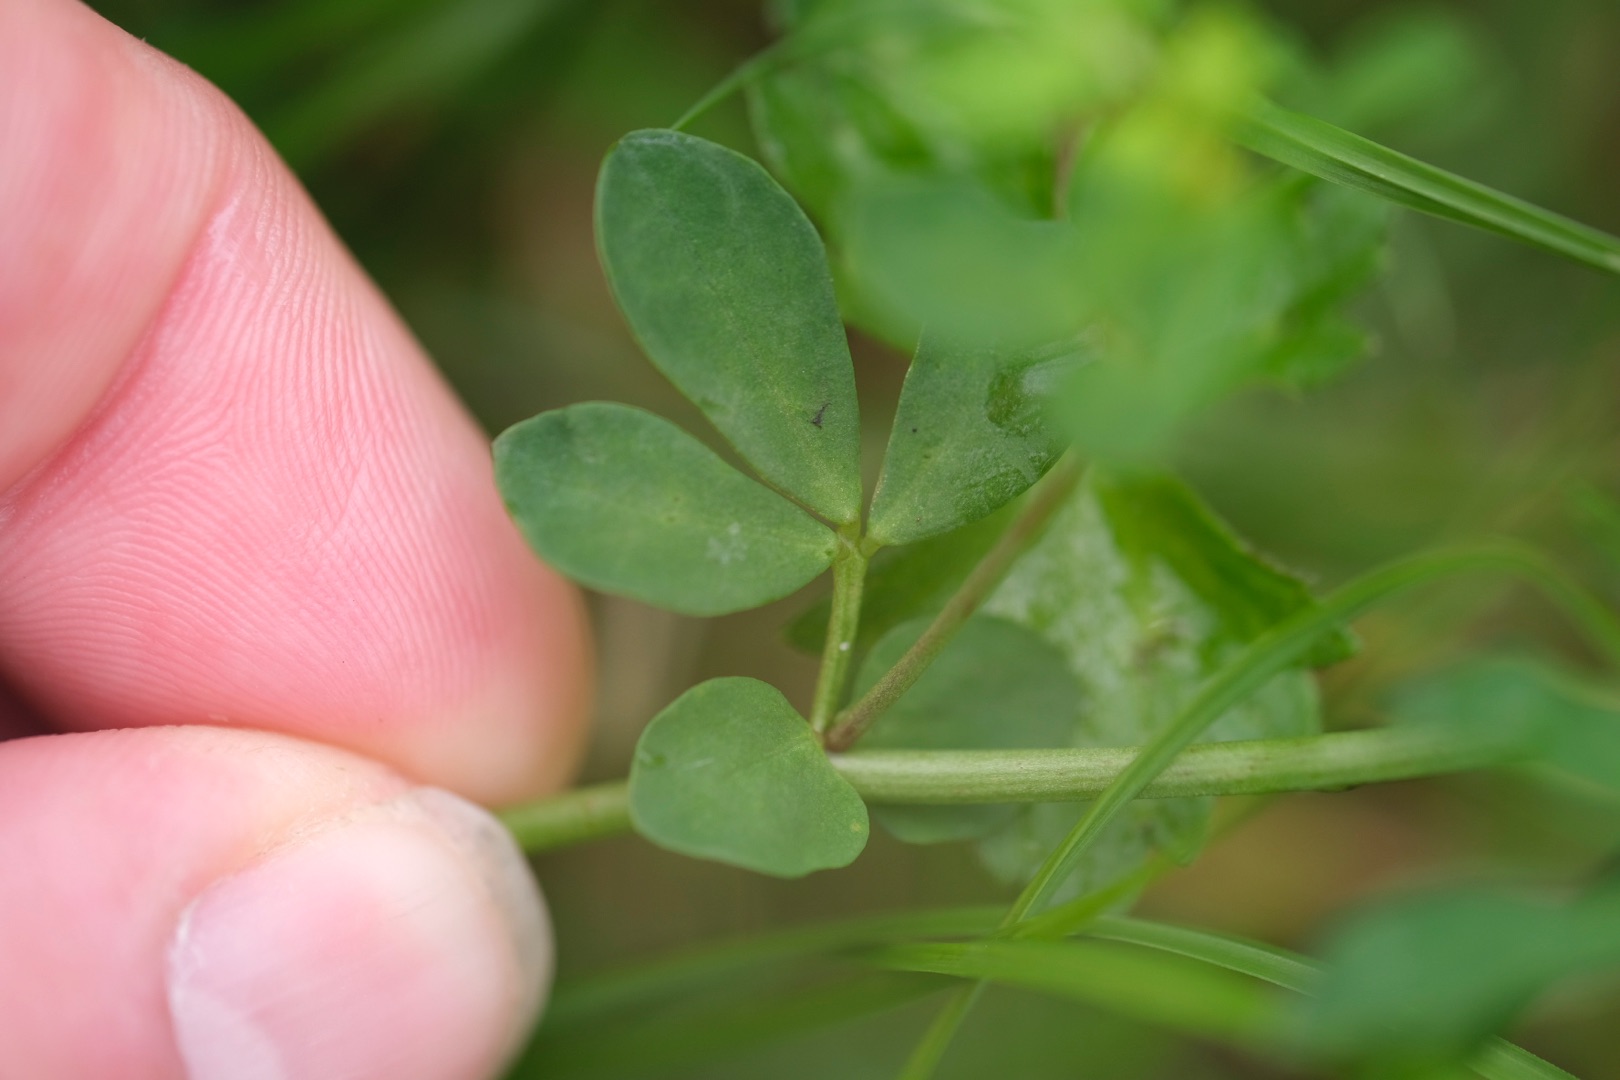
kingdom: Plantae
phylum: Tracheophyta
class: Magnoliopsida
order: Fabales
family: Fabaceae
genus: Lotus
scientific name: Lotus corniculatus
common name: Almindelig kællingetand
